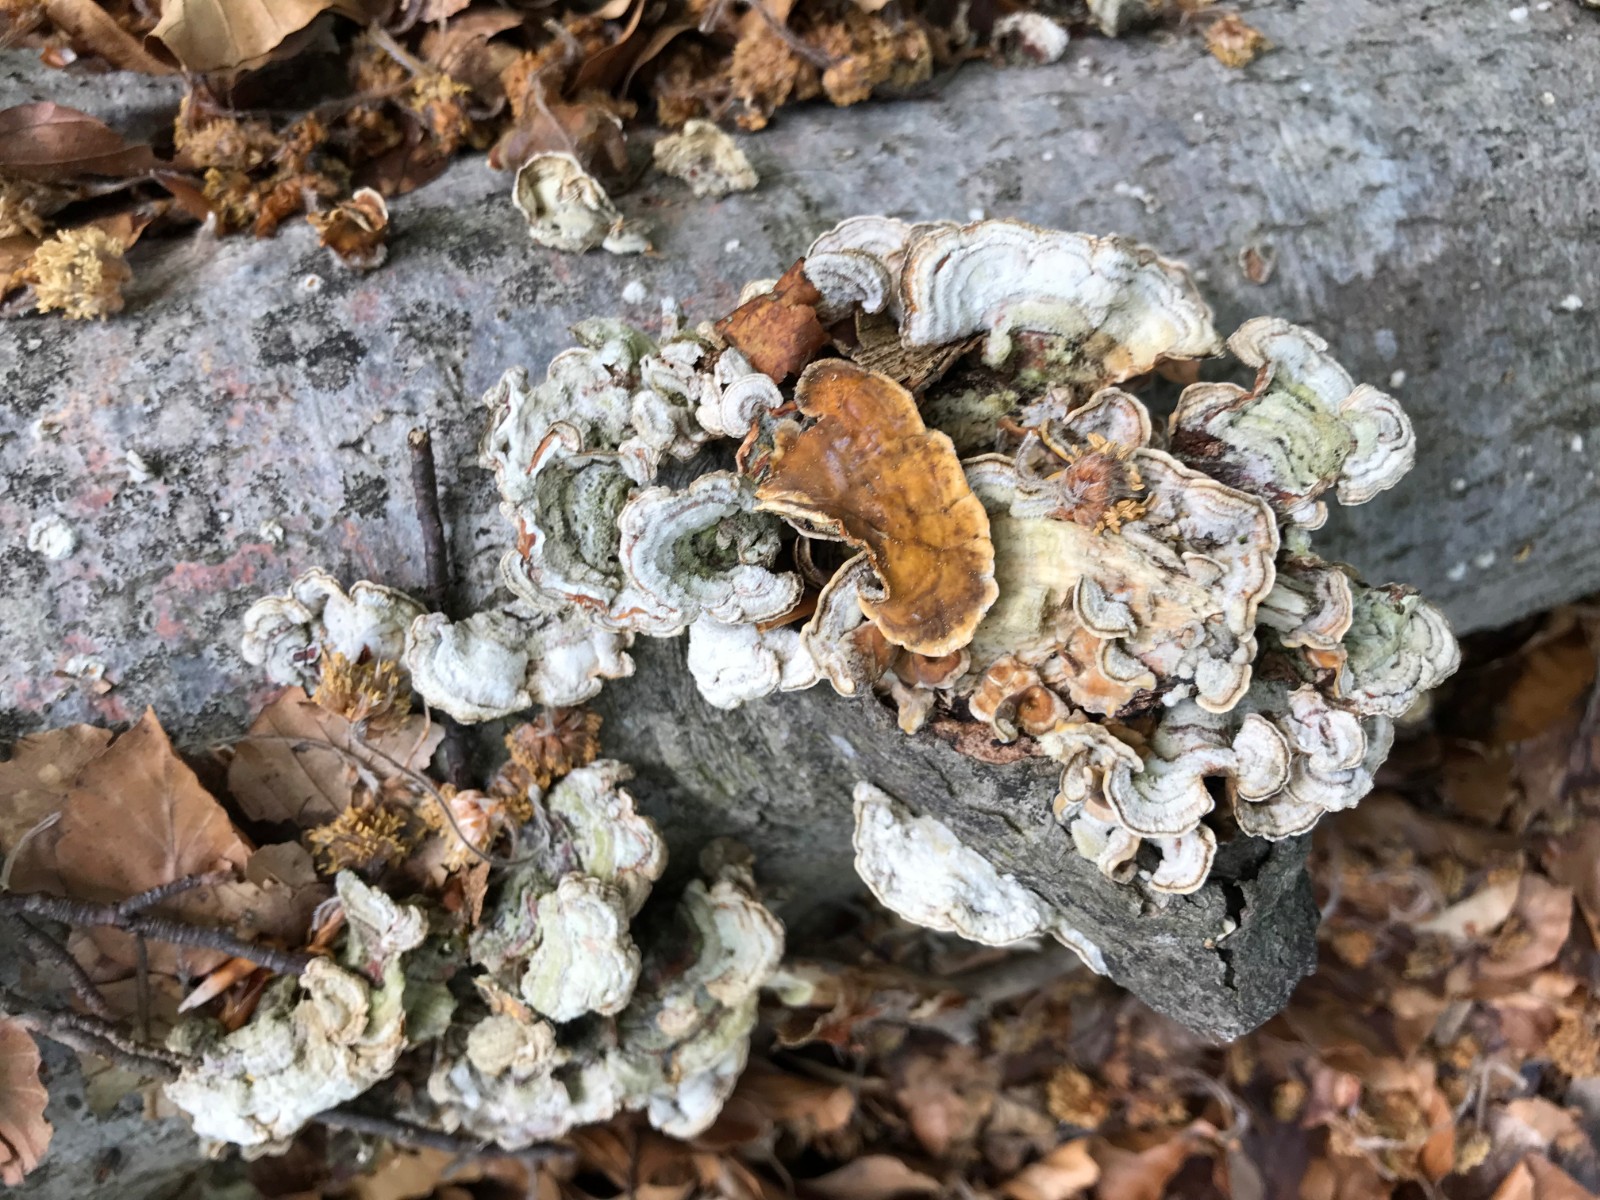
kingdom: Fungi
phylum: Basidiomycota
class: Agaricomycetes
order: Russulales
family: Stereaceae
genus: Stereum
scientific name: Stereum hirsutum
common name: håret lædersvamp
